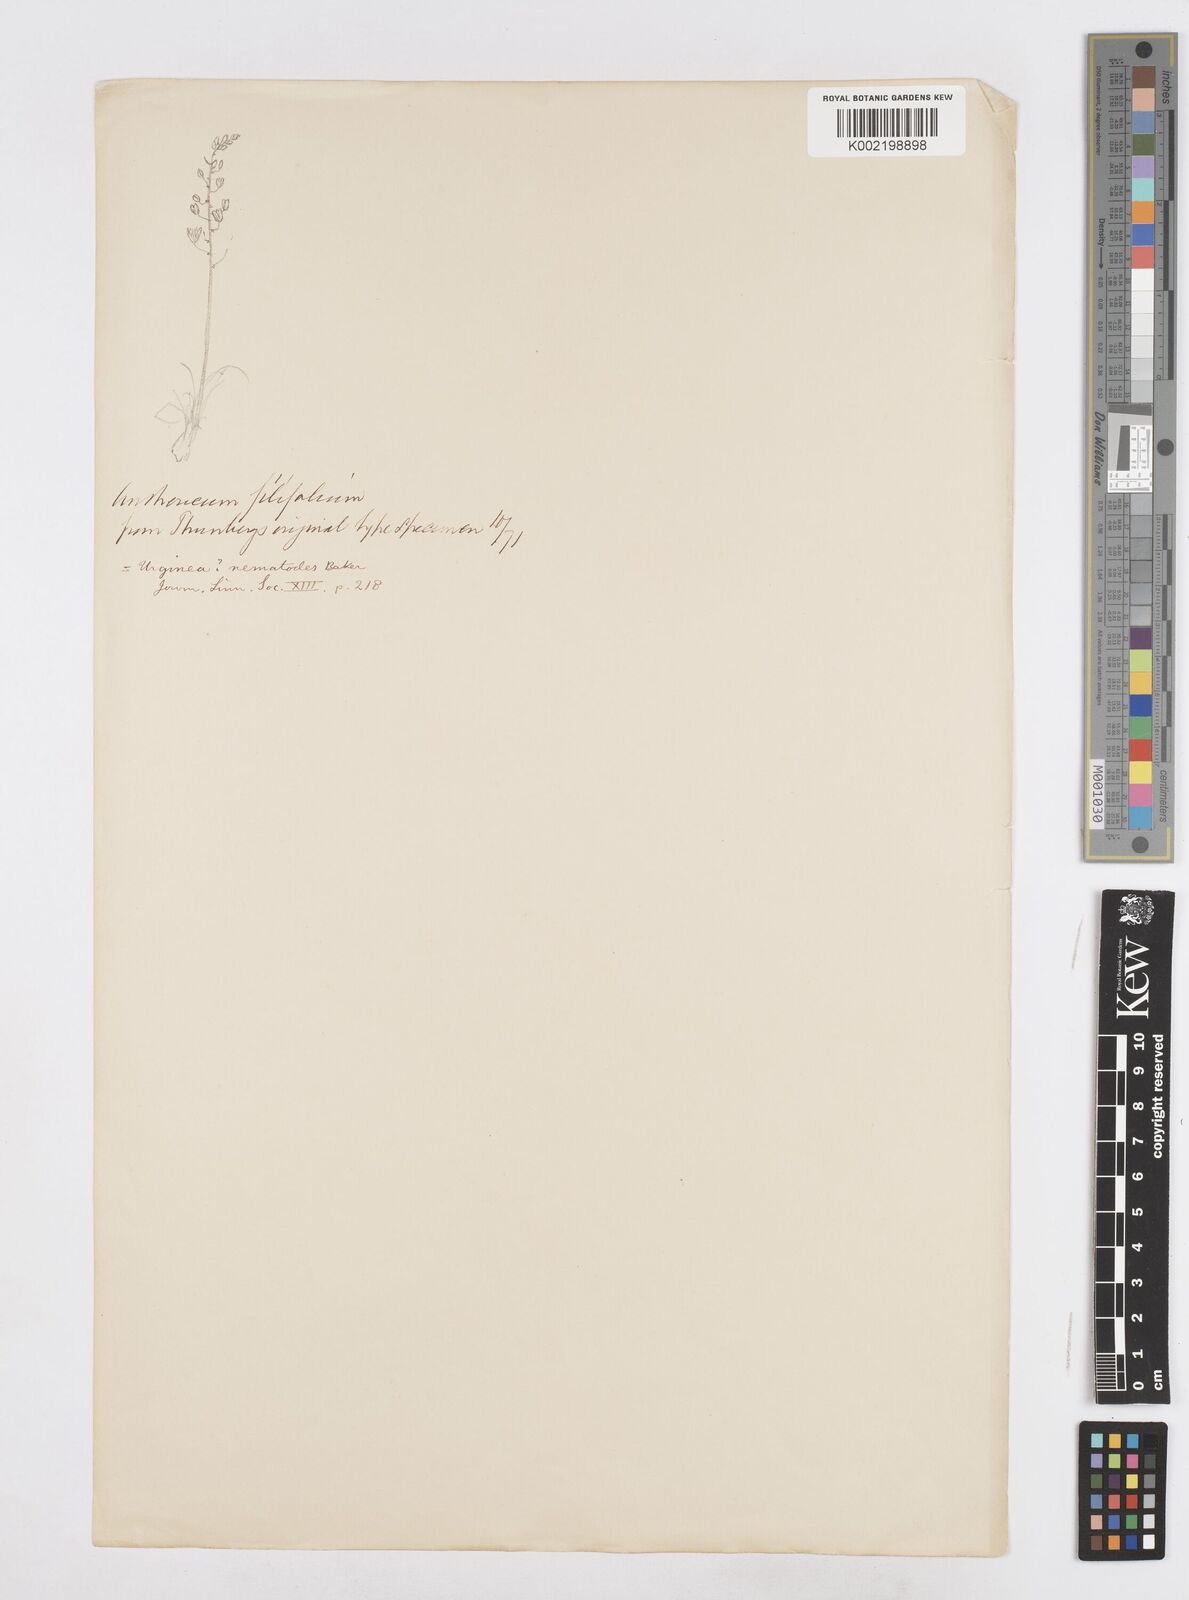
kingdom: Plantae
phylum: Tracheophyta
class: Liliopsida
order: Asparagales
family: Asparagaceae
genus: Drimia
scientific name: Drimia
